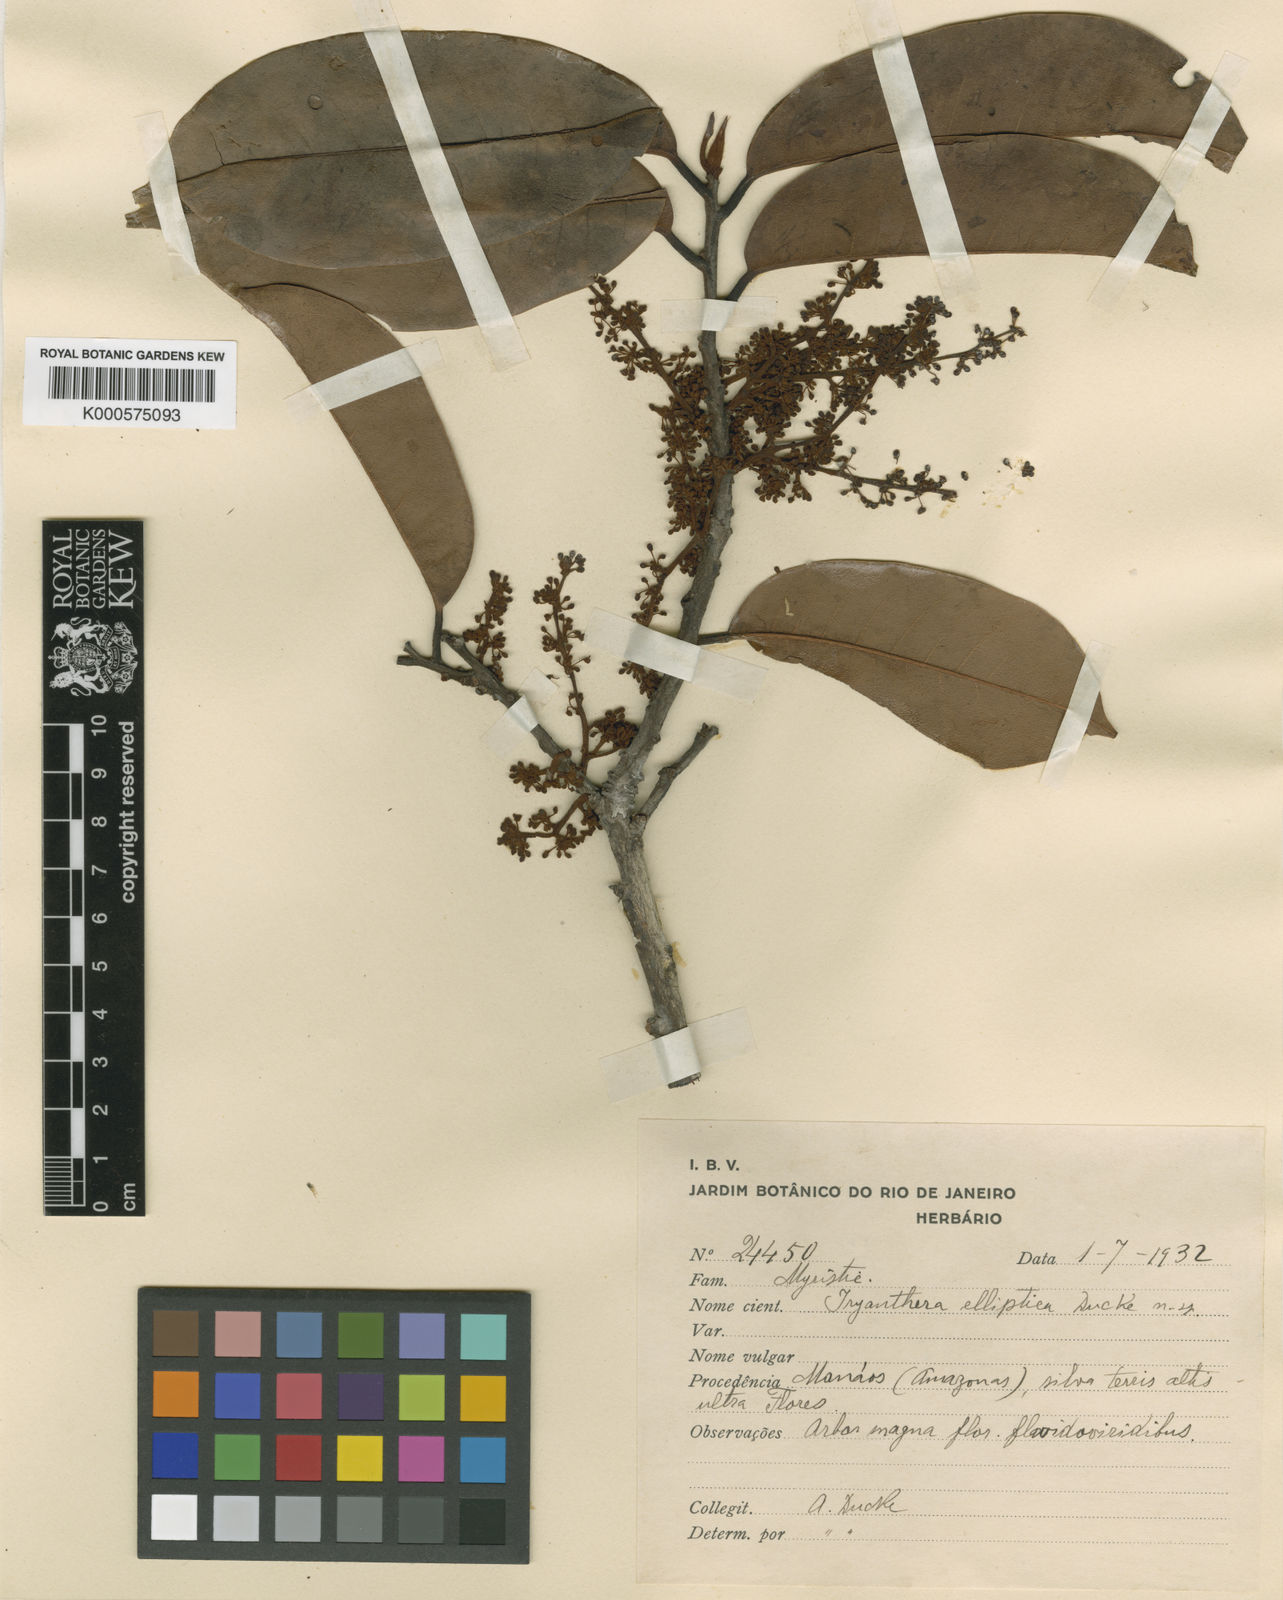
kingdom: Plantae
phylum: Tracheophyta
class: Magnoliopsida
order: Magnoliales
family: Myristicaceae
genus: Iryanthera
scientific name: Iryanthera elliptica
